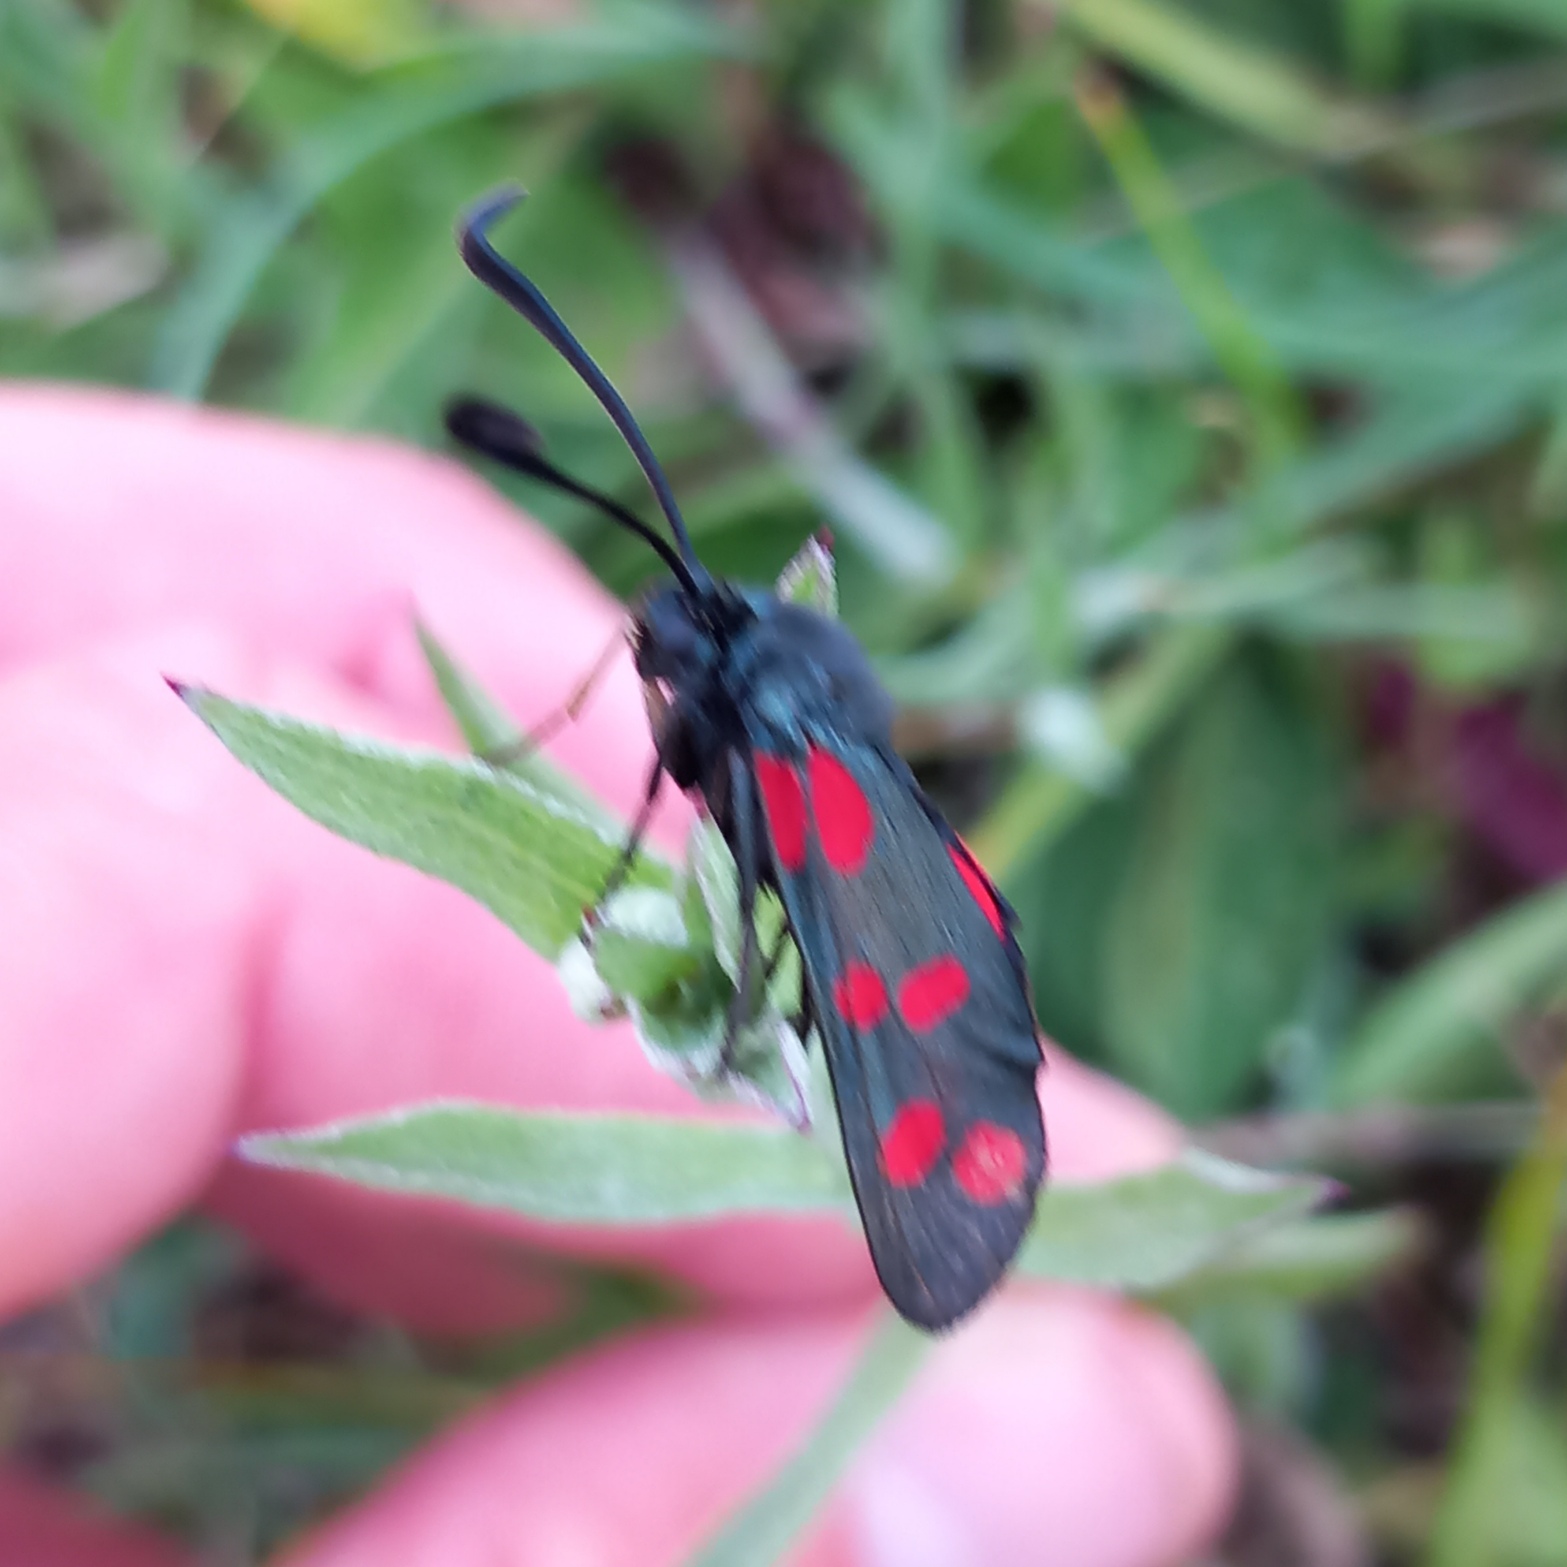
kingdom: Animalia
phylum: Arthropoda
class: Insecta
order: Lepidoptera
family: Zygaenidae
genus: Zygaena
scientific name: Zygaena filipendulae
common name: Seksplettet køllesværmer
